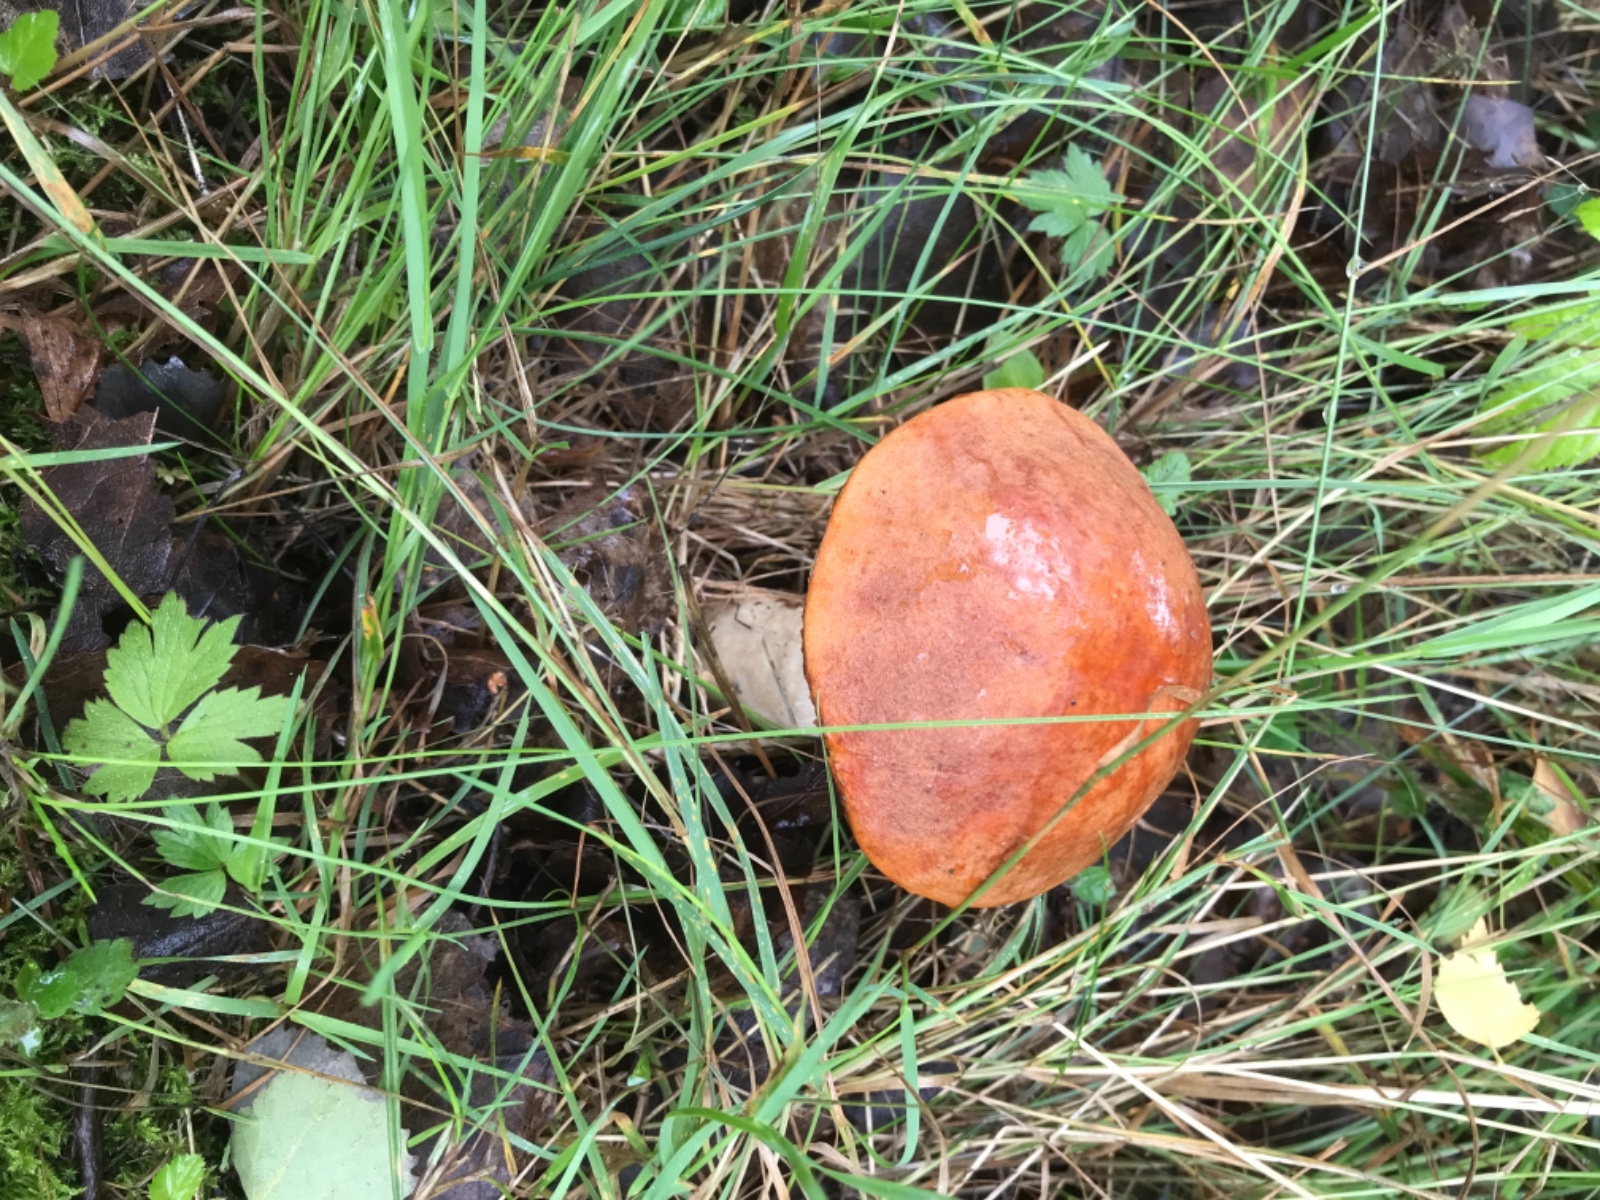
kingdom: Fungi
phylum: Basidiomycota
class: Agaricomycetes
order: Boletales
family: Boletaceae
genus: Leccinum
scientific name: Leccinum albostipitatum
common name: aspe-skælrørhat
